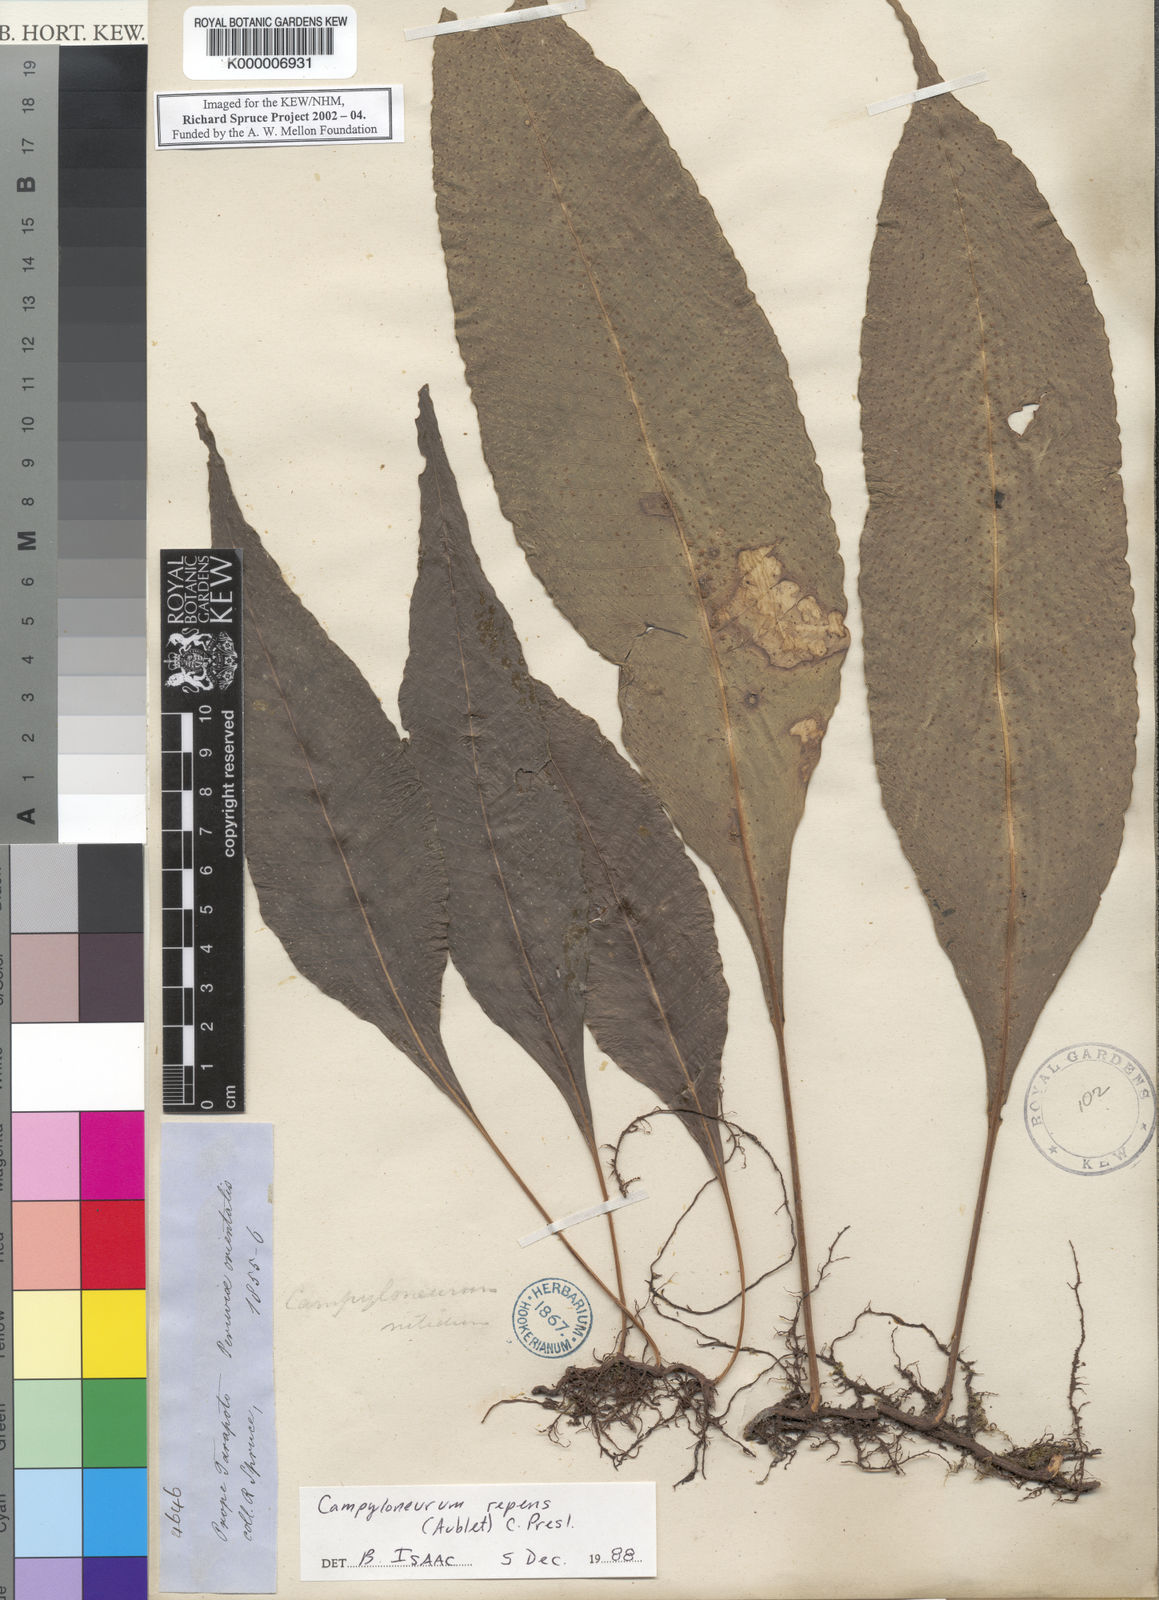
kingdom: Plantae
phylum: Tracheophyta
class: Polypodiopsida
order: Polypodiales
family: Polypodiaceae
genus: Campyloneurum
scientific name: Campyloneurum repens
